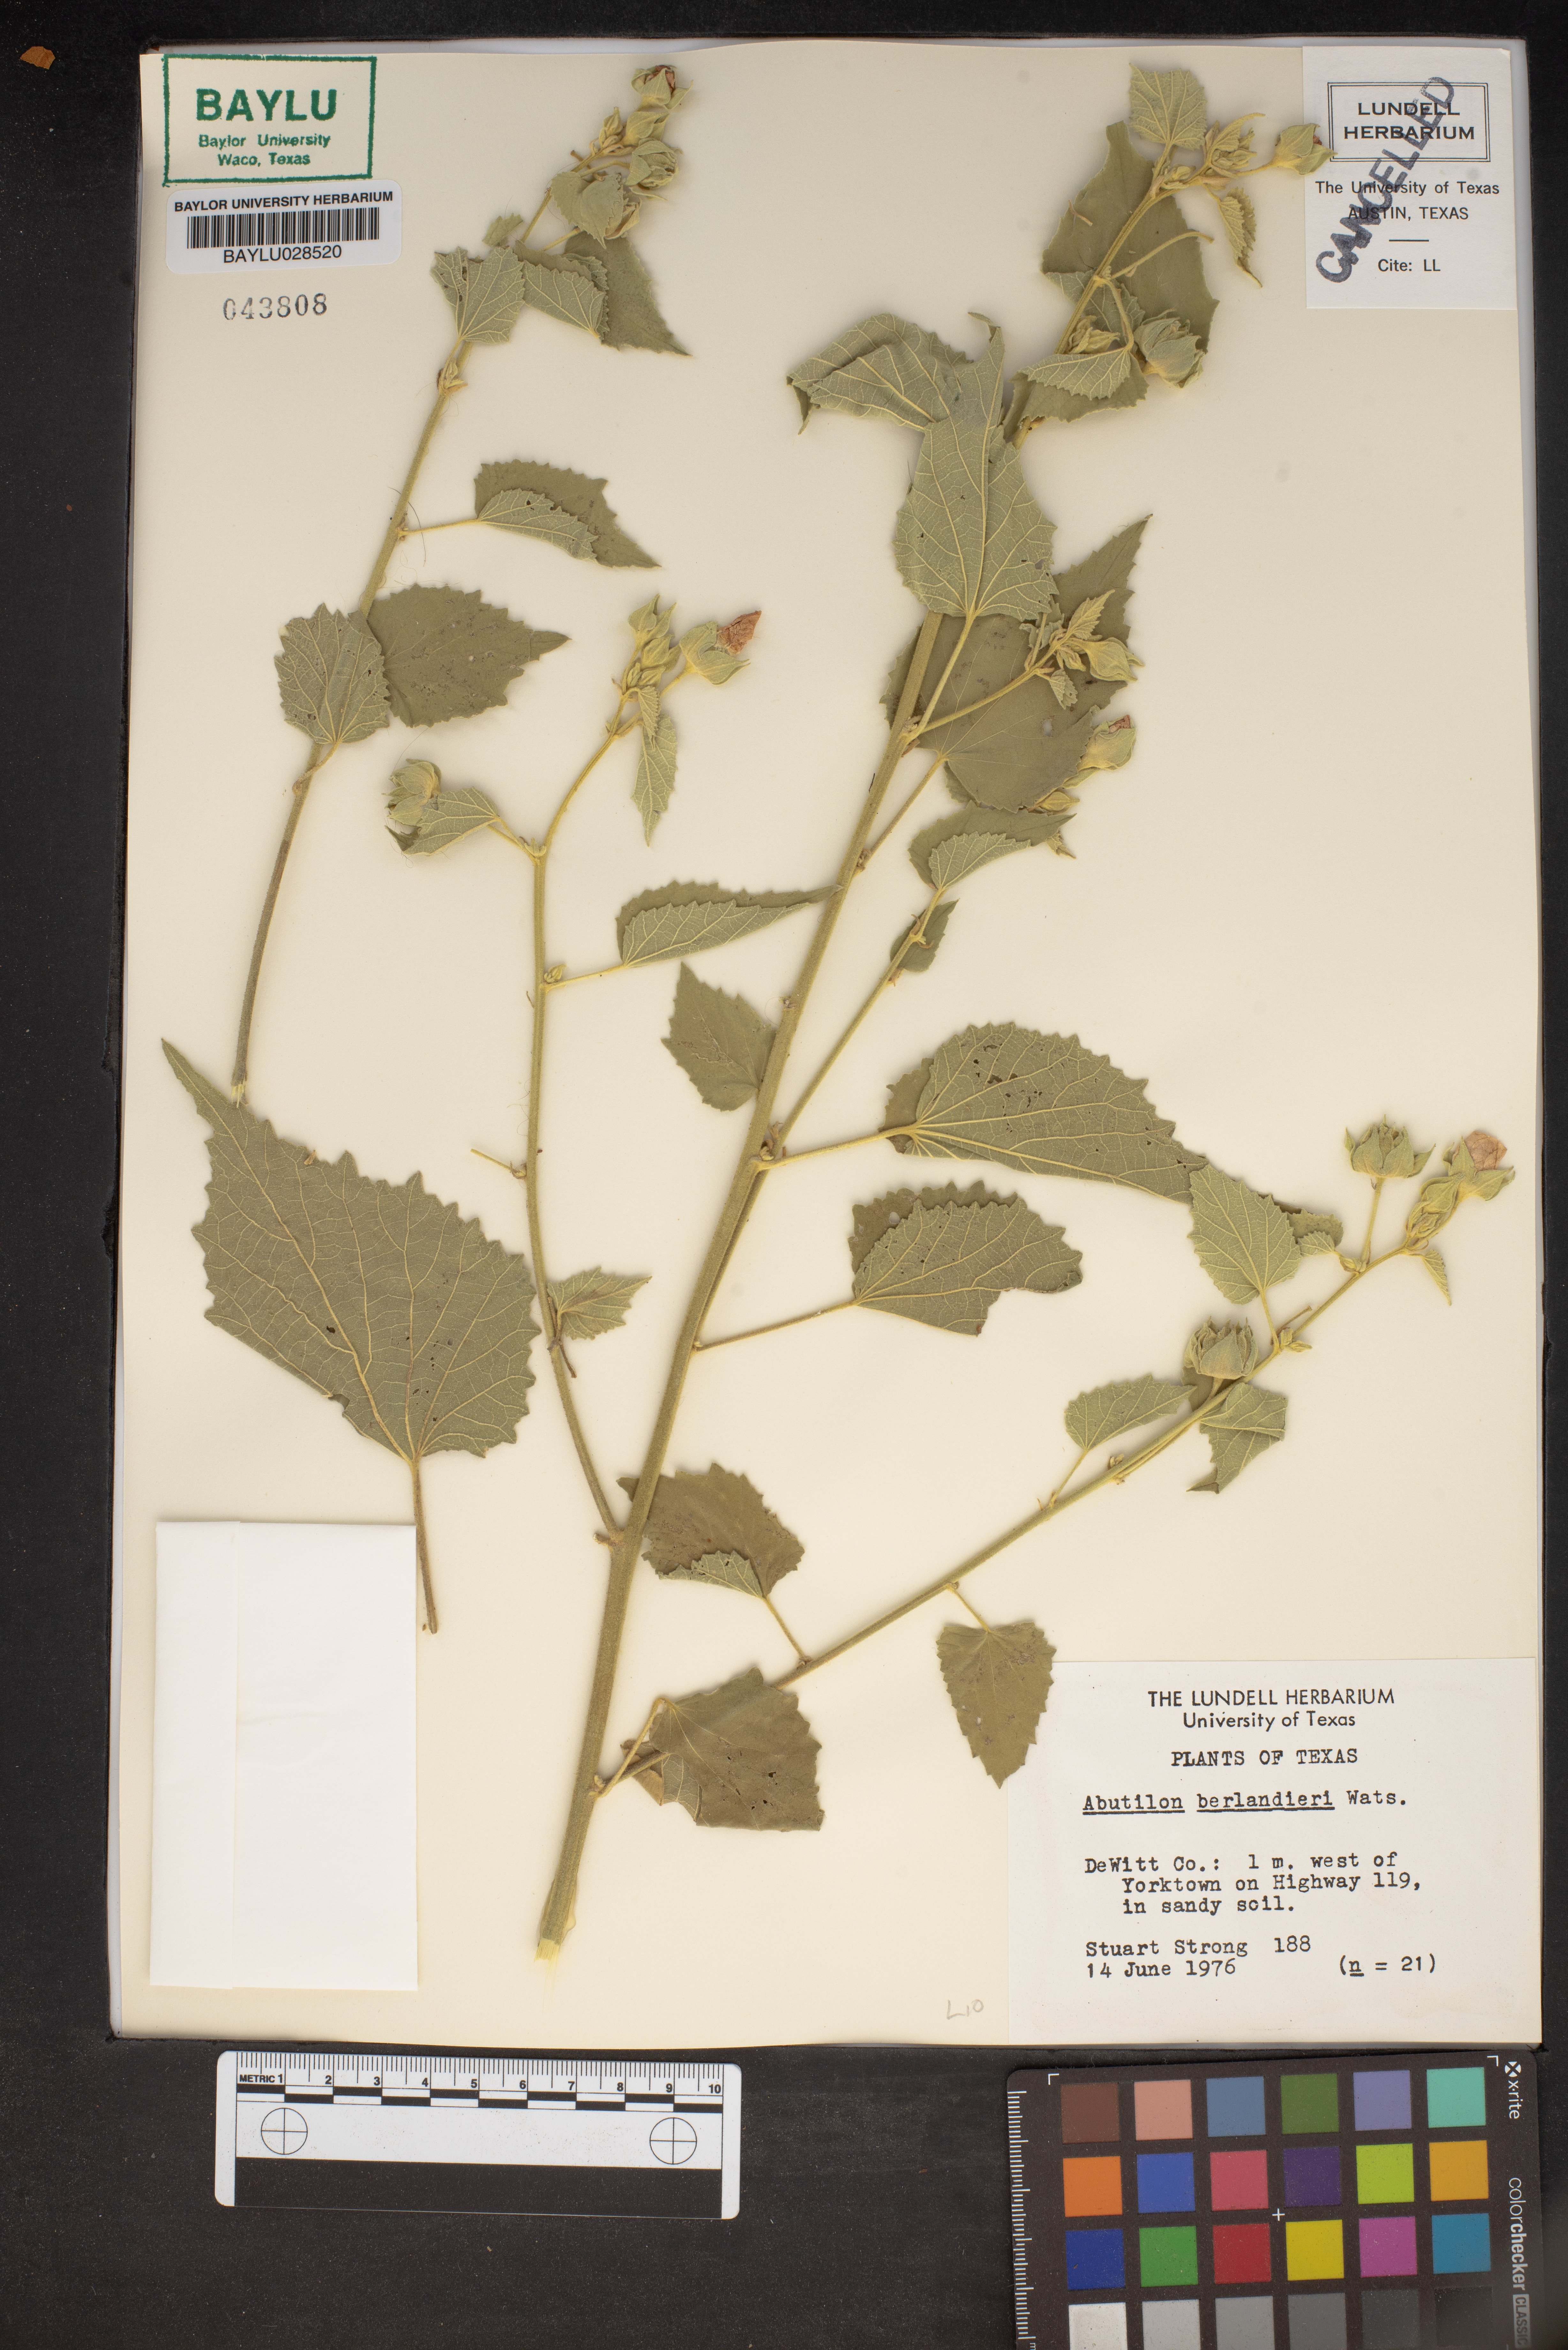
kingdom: Plantae
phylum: Tracheophyta
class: Magnoliopsida
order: Malvales
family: Malvaceae
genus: Abutilon
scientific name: Abutilon berlandieri
